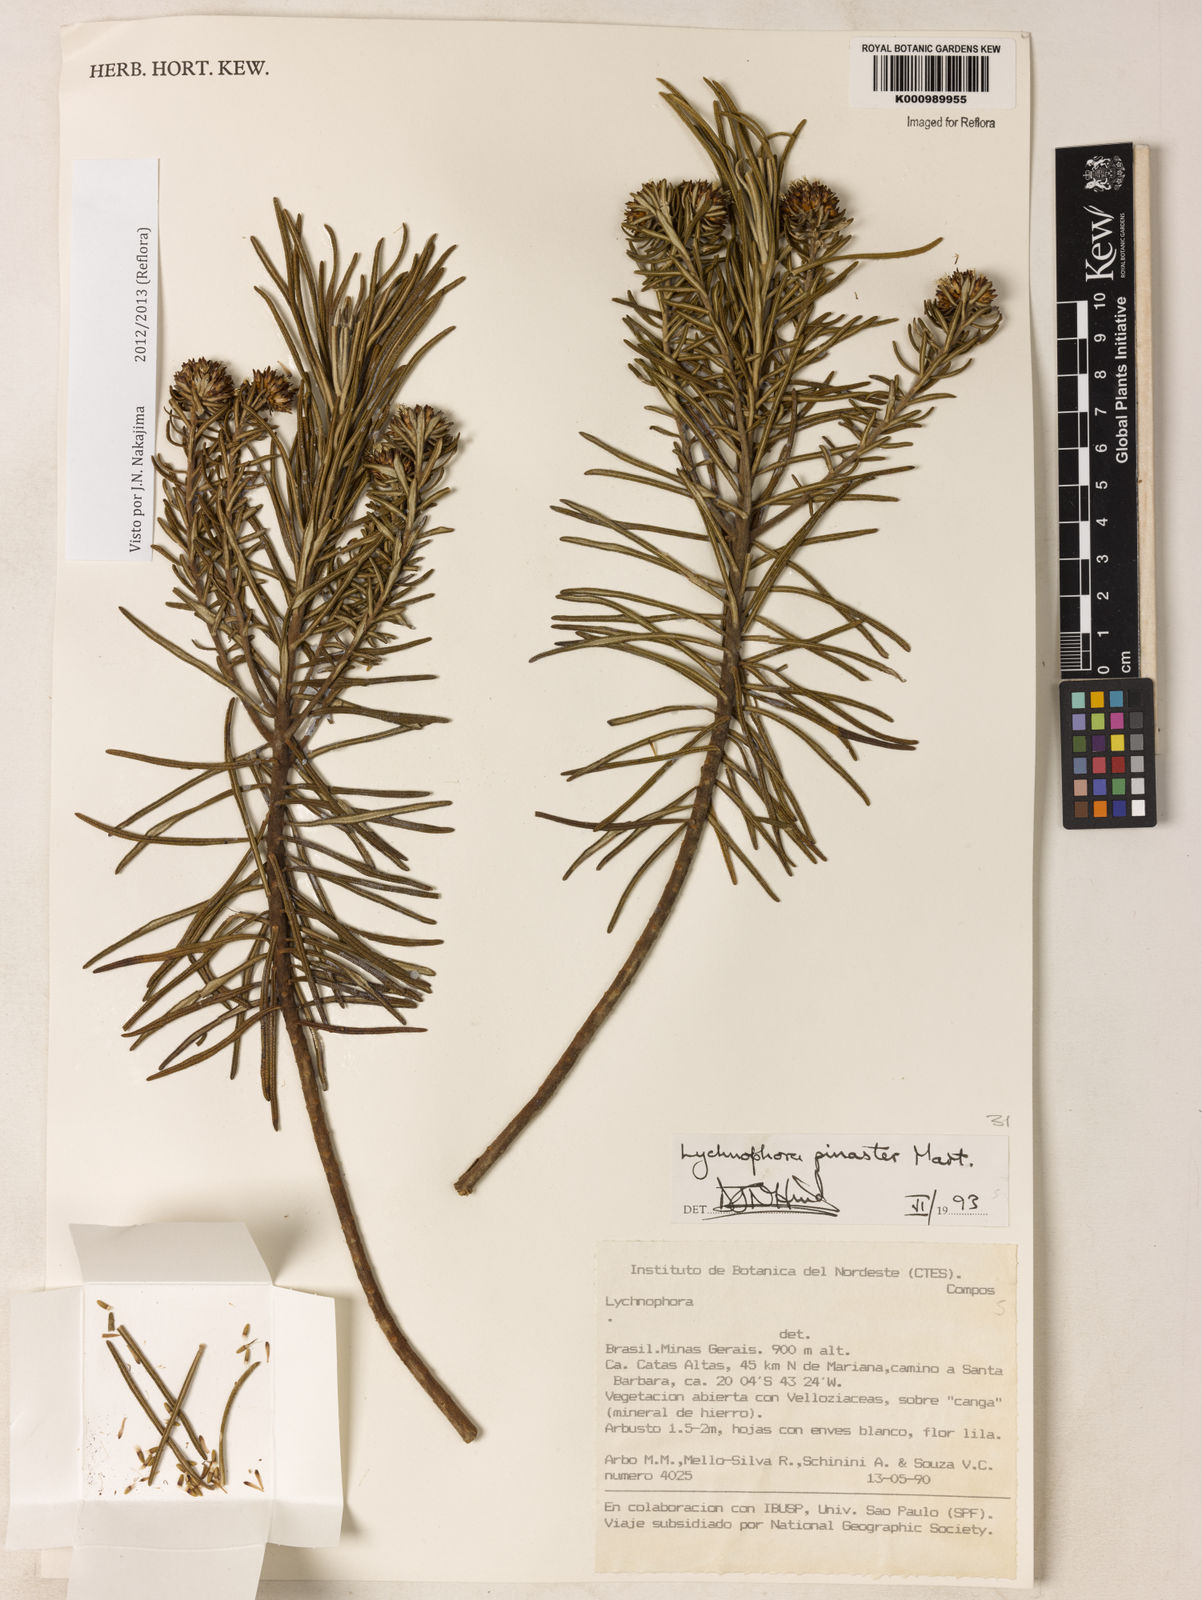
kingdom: Plantae
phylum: Tracheophyta
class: Magnoliopsida
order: Asterales
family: Asteraceae
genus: Lychnophora
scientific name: Lychnophora pinaster
